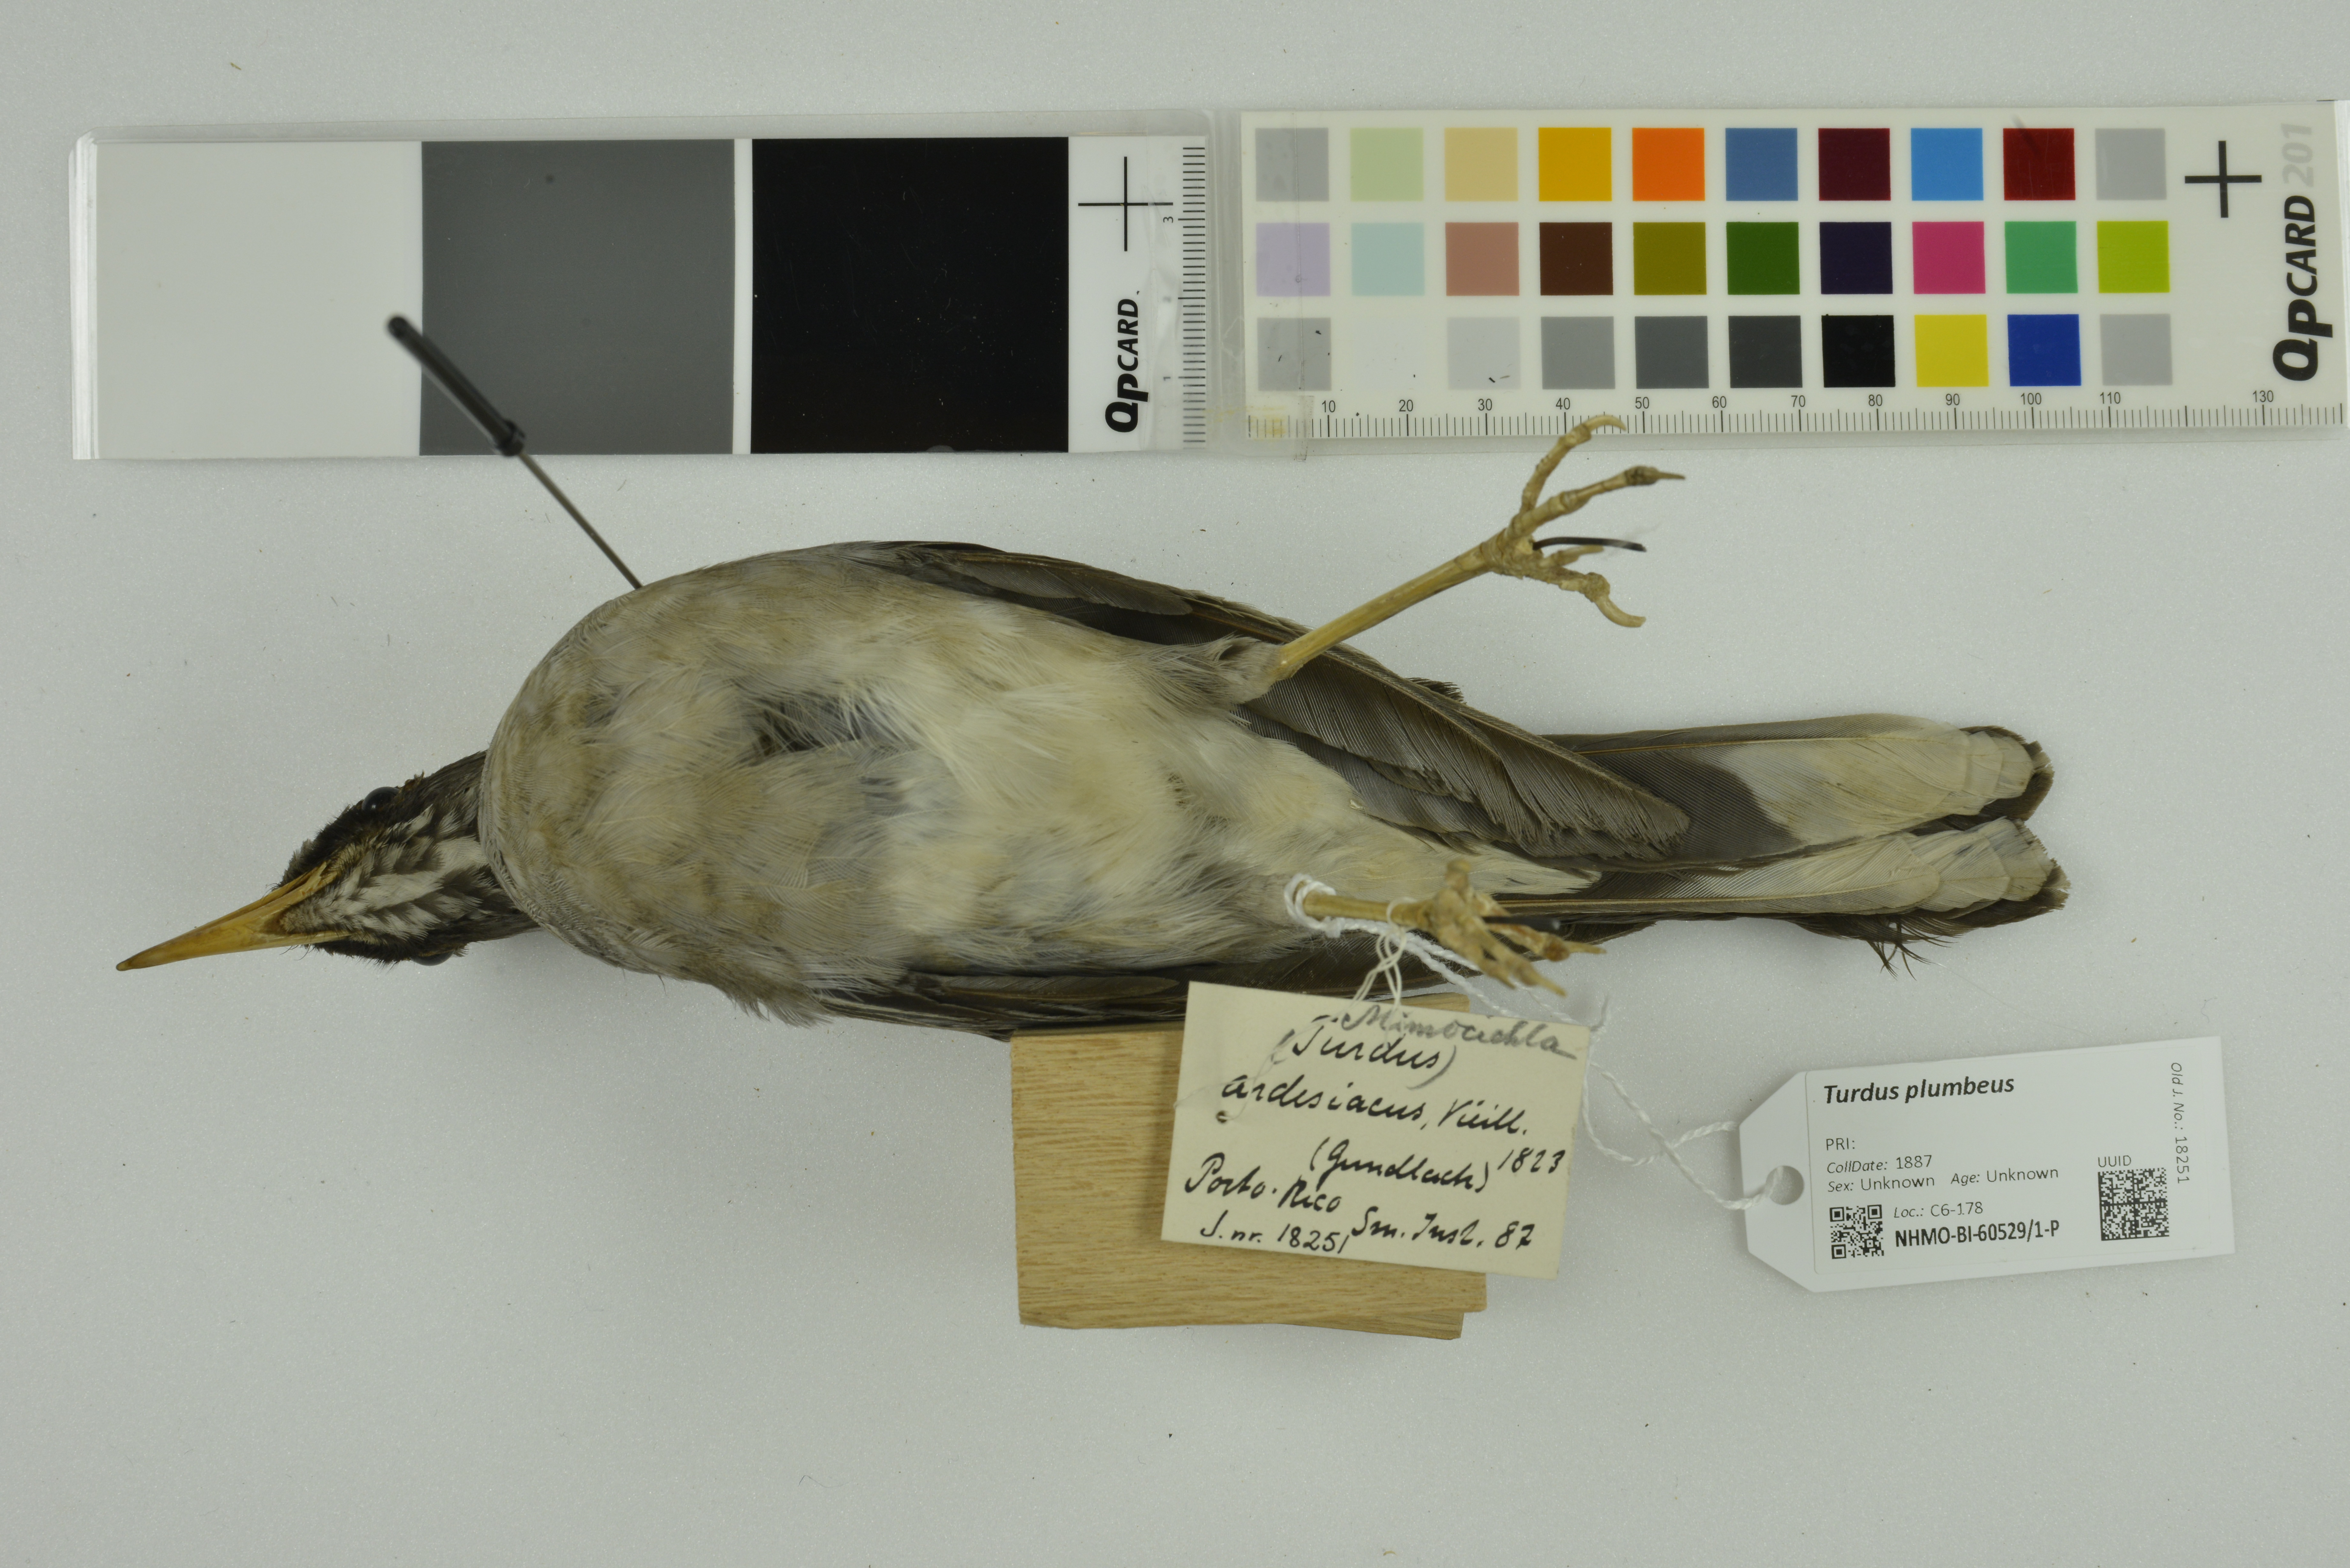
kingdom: Animalia
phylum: Chordata
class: Aves
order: Passeriformes
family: Turdidae
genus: Turdus
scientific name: Turdus plumbeus
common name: Red-legged thrush
